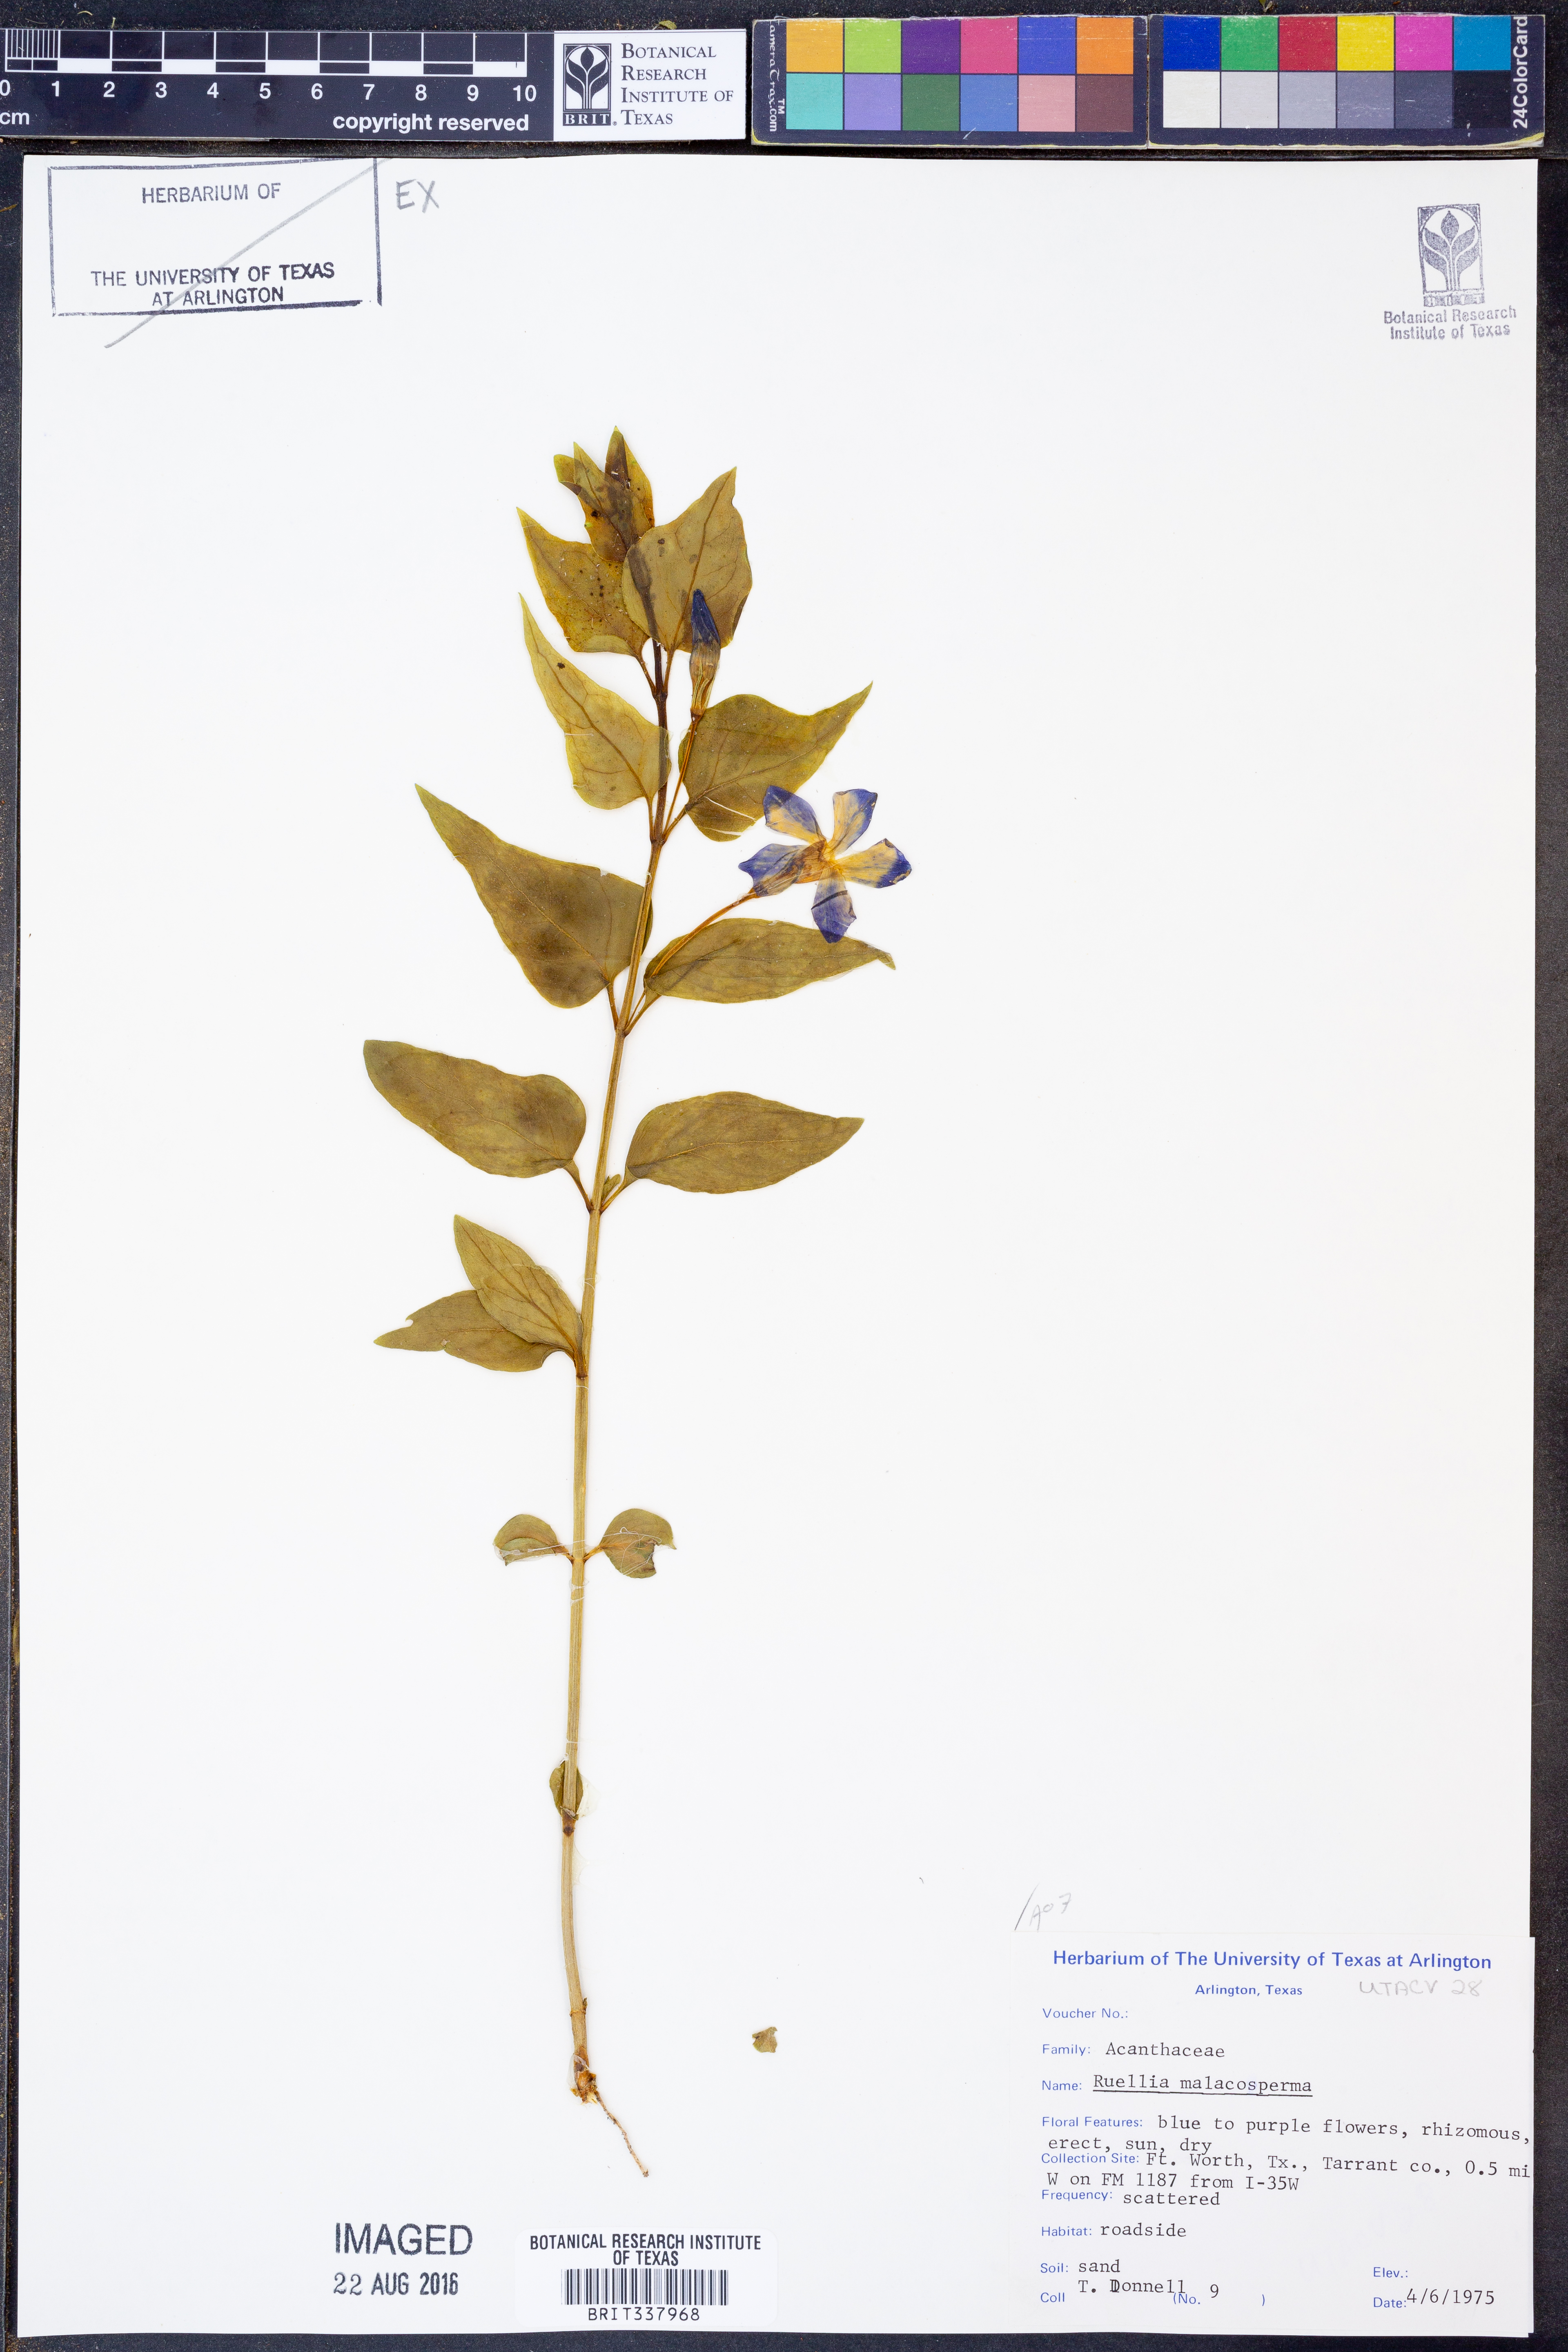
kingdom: Plantae
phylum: Tracheophyta
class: Magnoliopsida
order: Lamiales
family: Acanthaceae
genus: Ruellia
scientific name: Ruellia malacosperma
